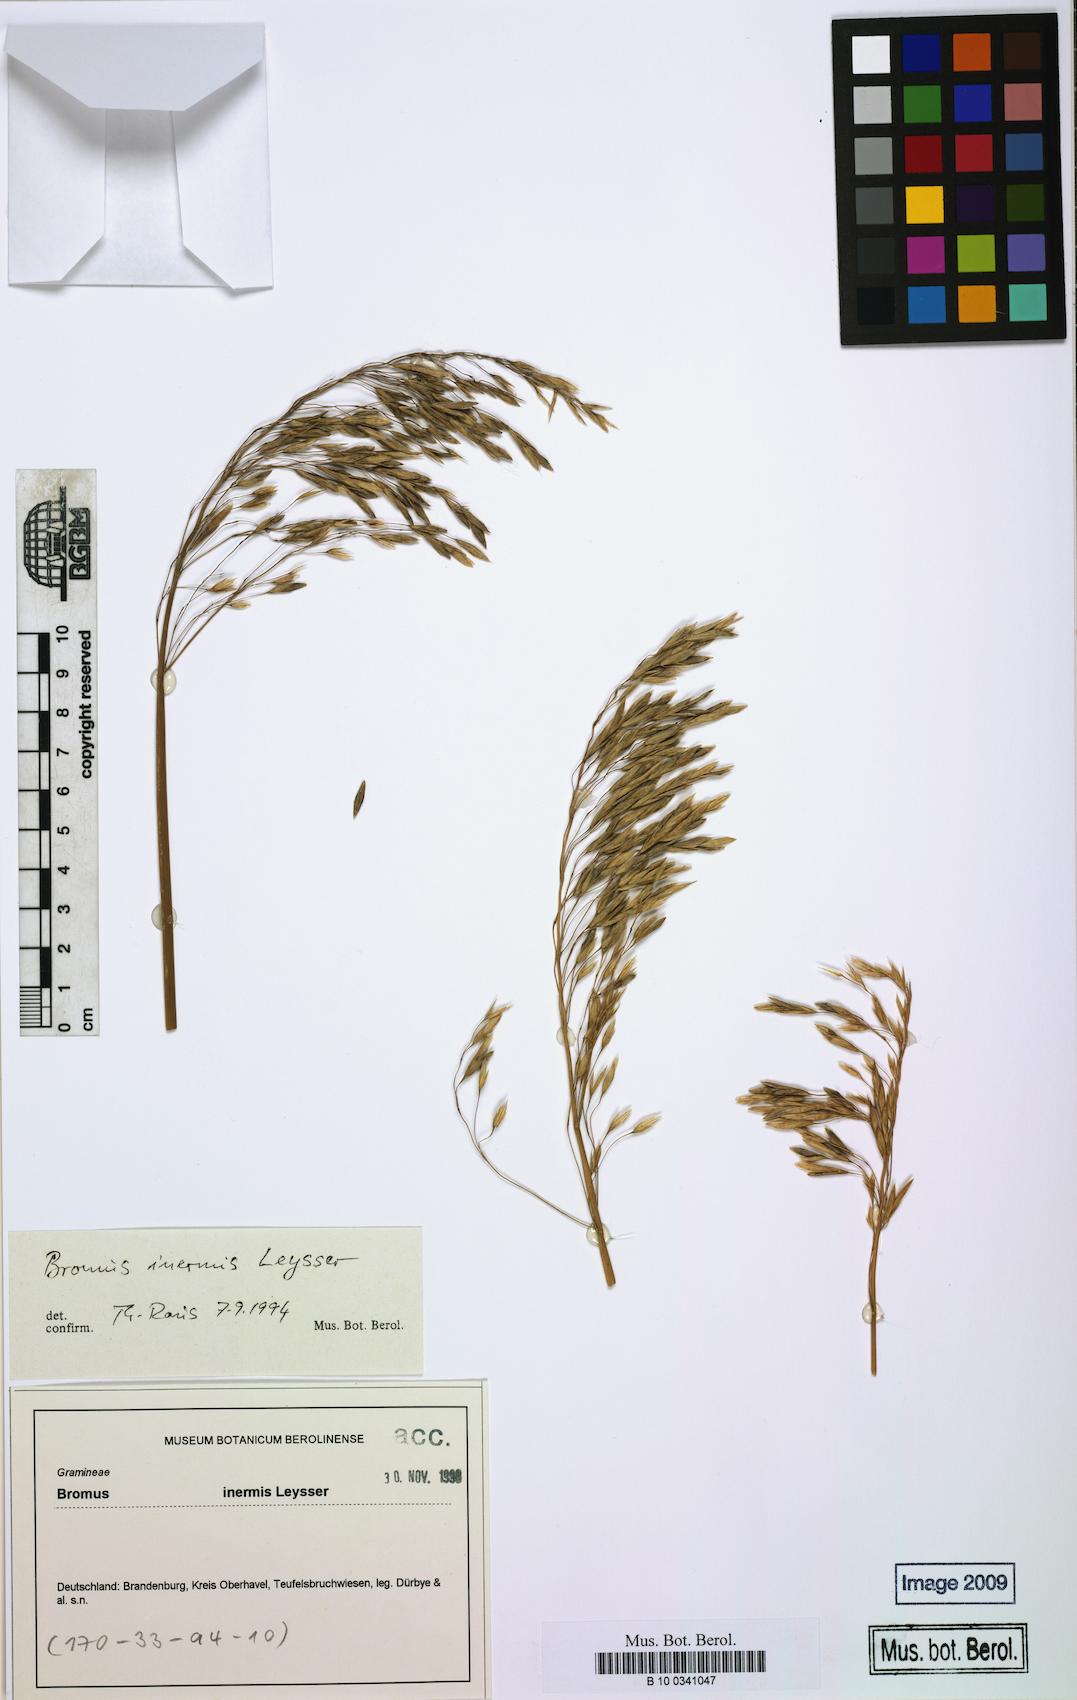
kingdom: Plantae
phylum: Tracheophyta
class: Liliopsida
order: Poales
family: Poaceae
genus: Bromus
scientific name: Bromus inermis
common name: Smooth brome
